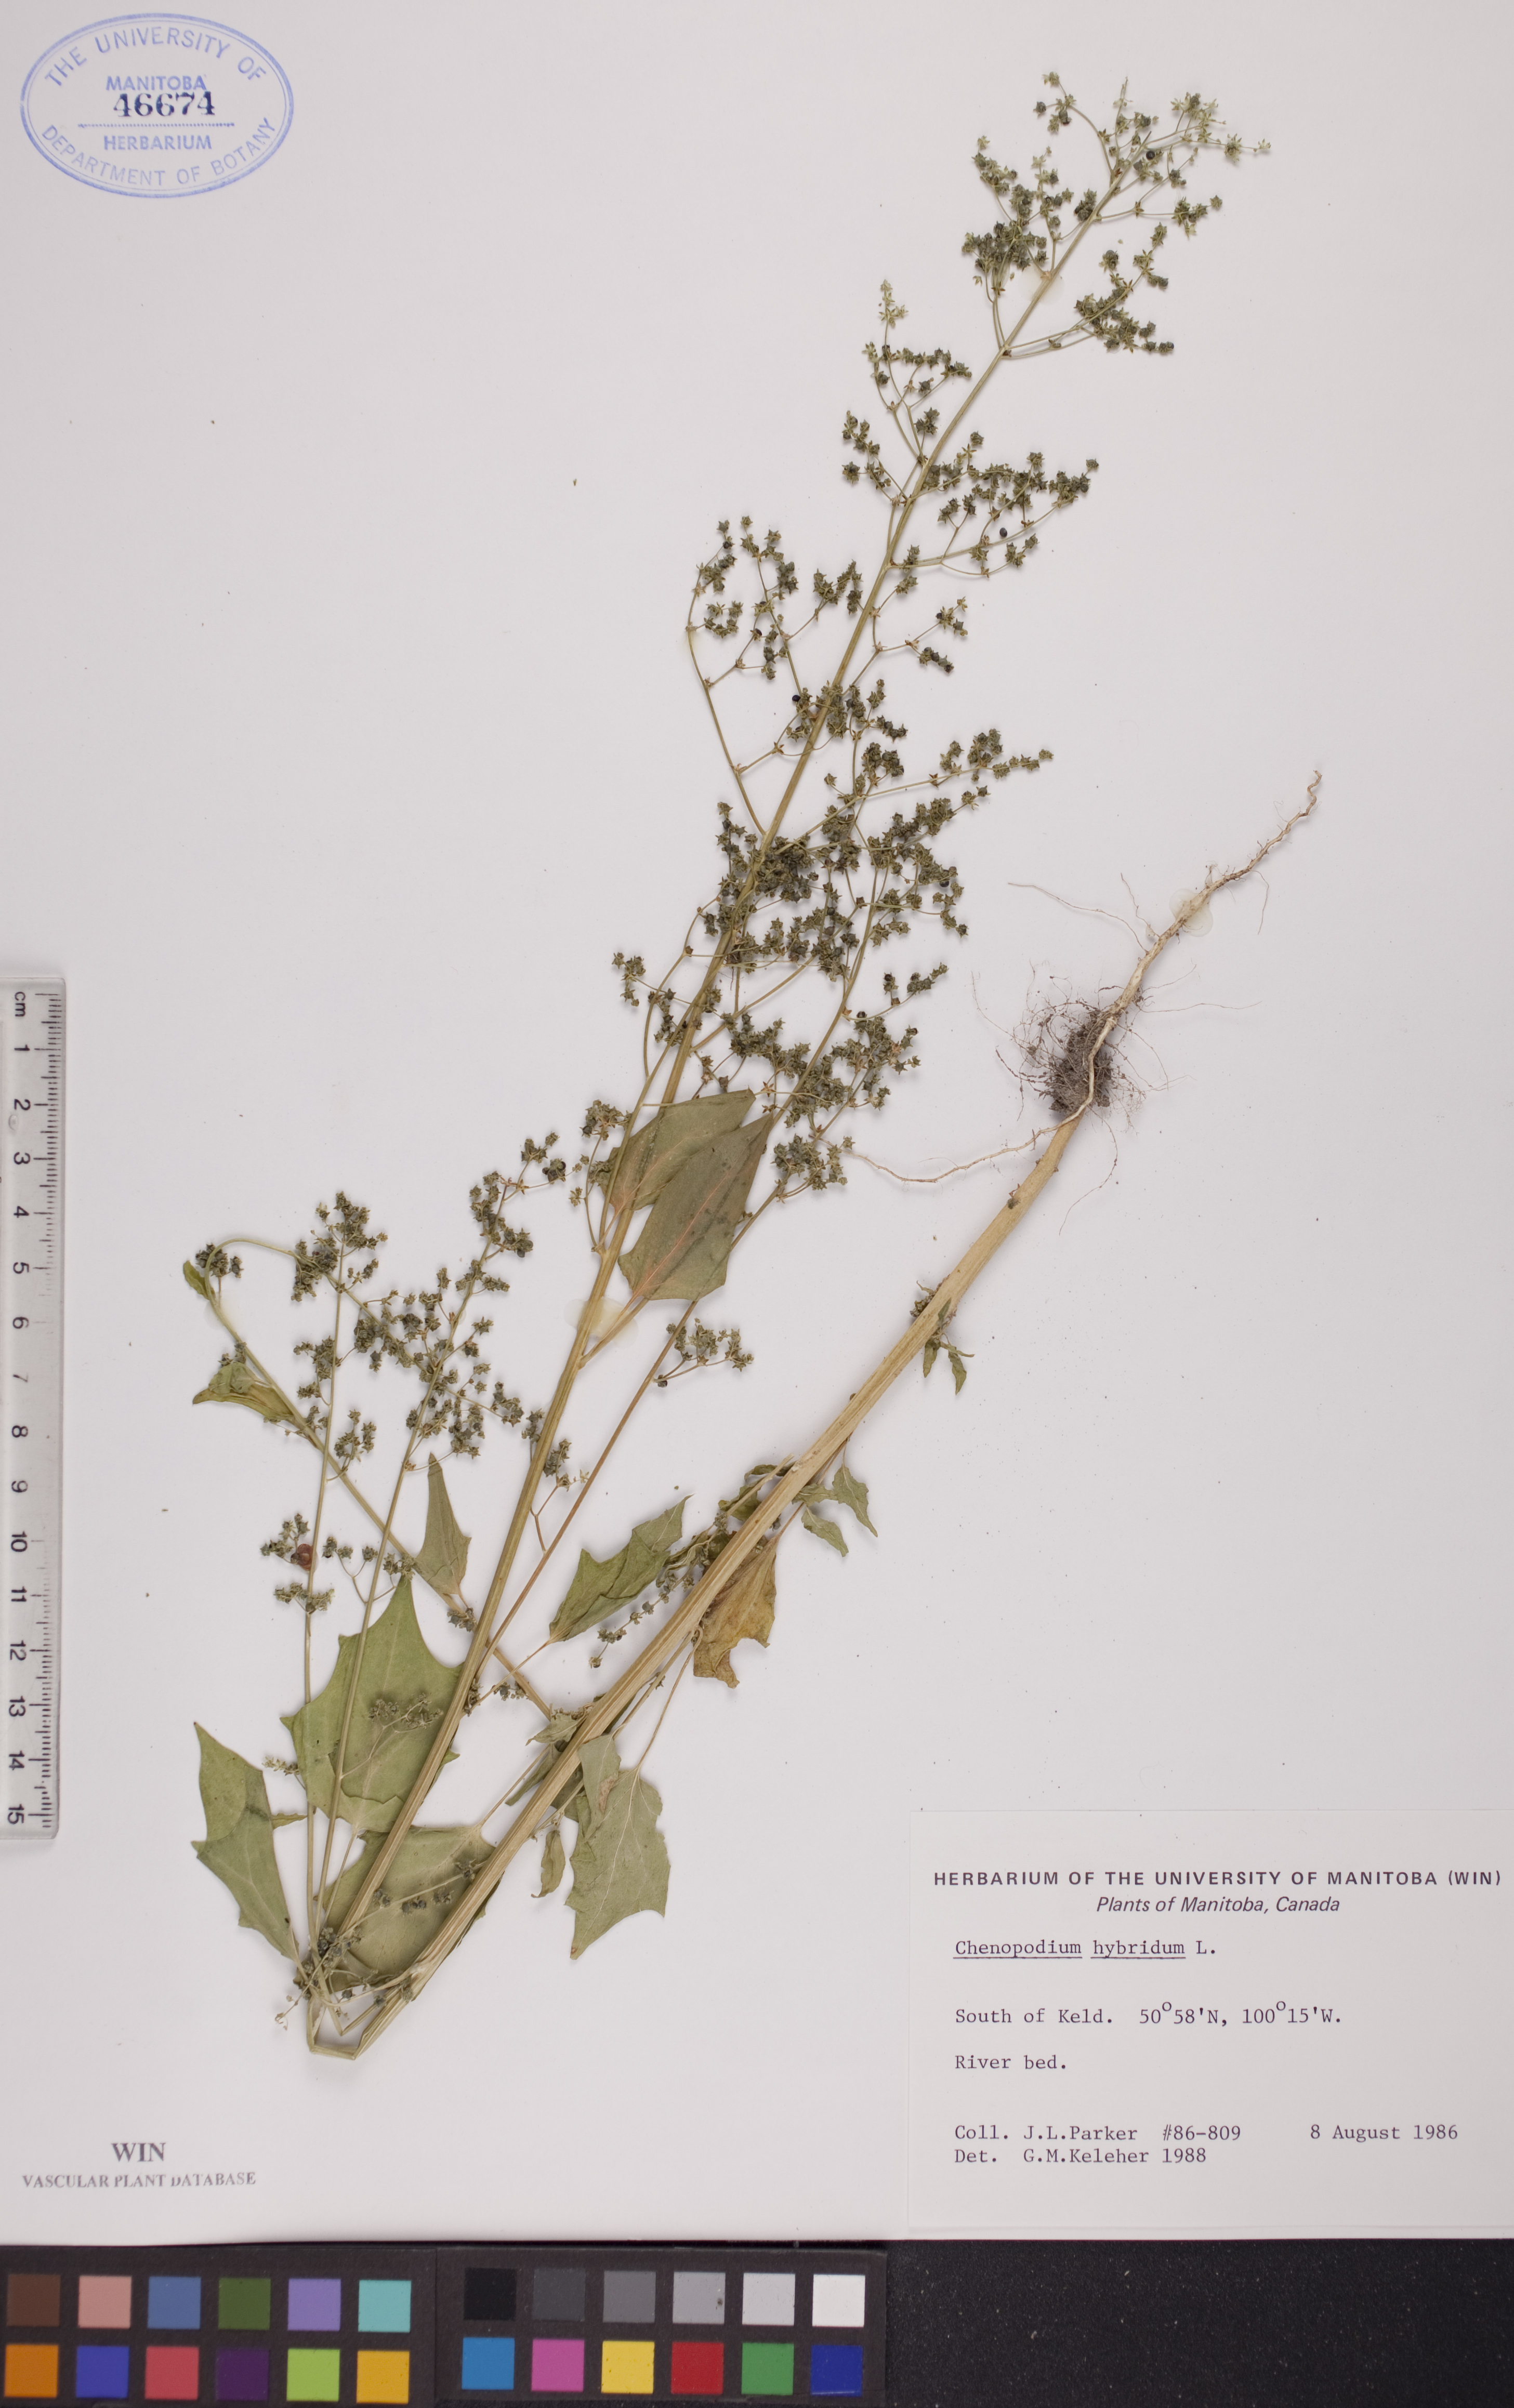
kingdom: Plantae
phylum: Tracheophyta
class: Magnoliopsida
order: Caryophyllales
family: Amaranthaceae
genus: Chenopodiastrum
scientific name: Chenopodiastrum hybridum
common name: Mapleleaf goosefoot
